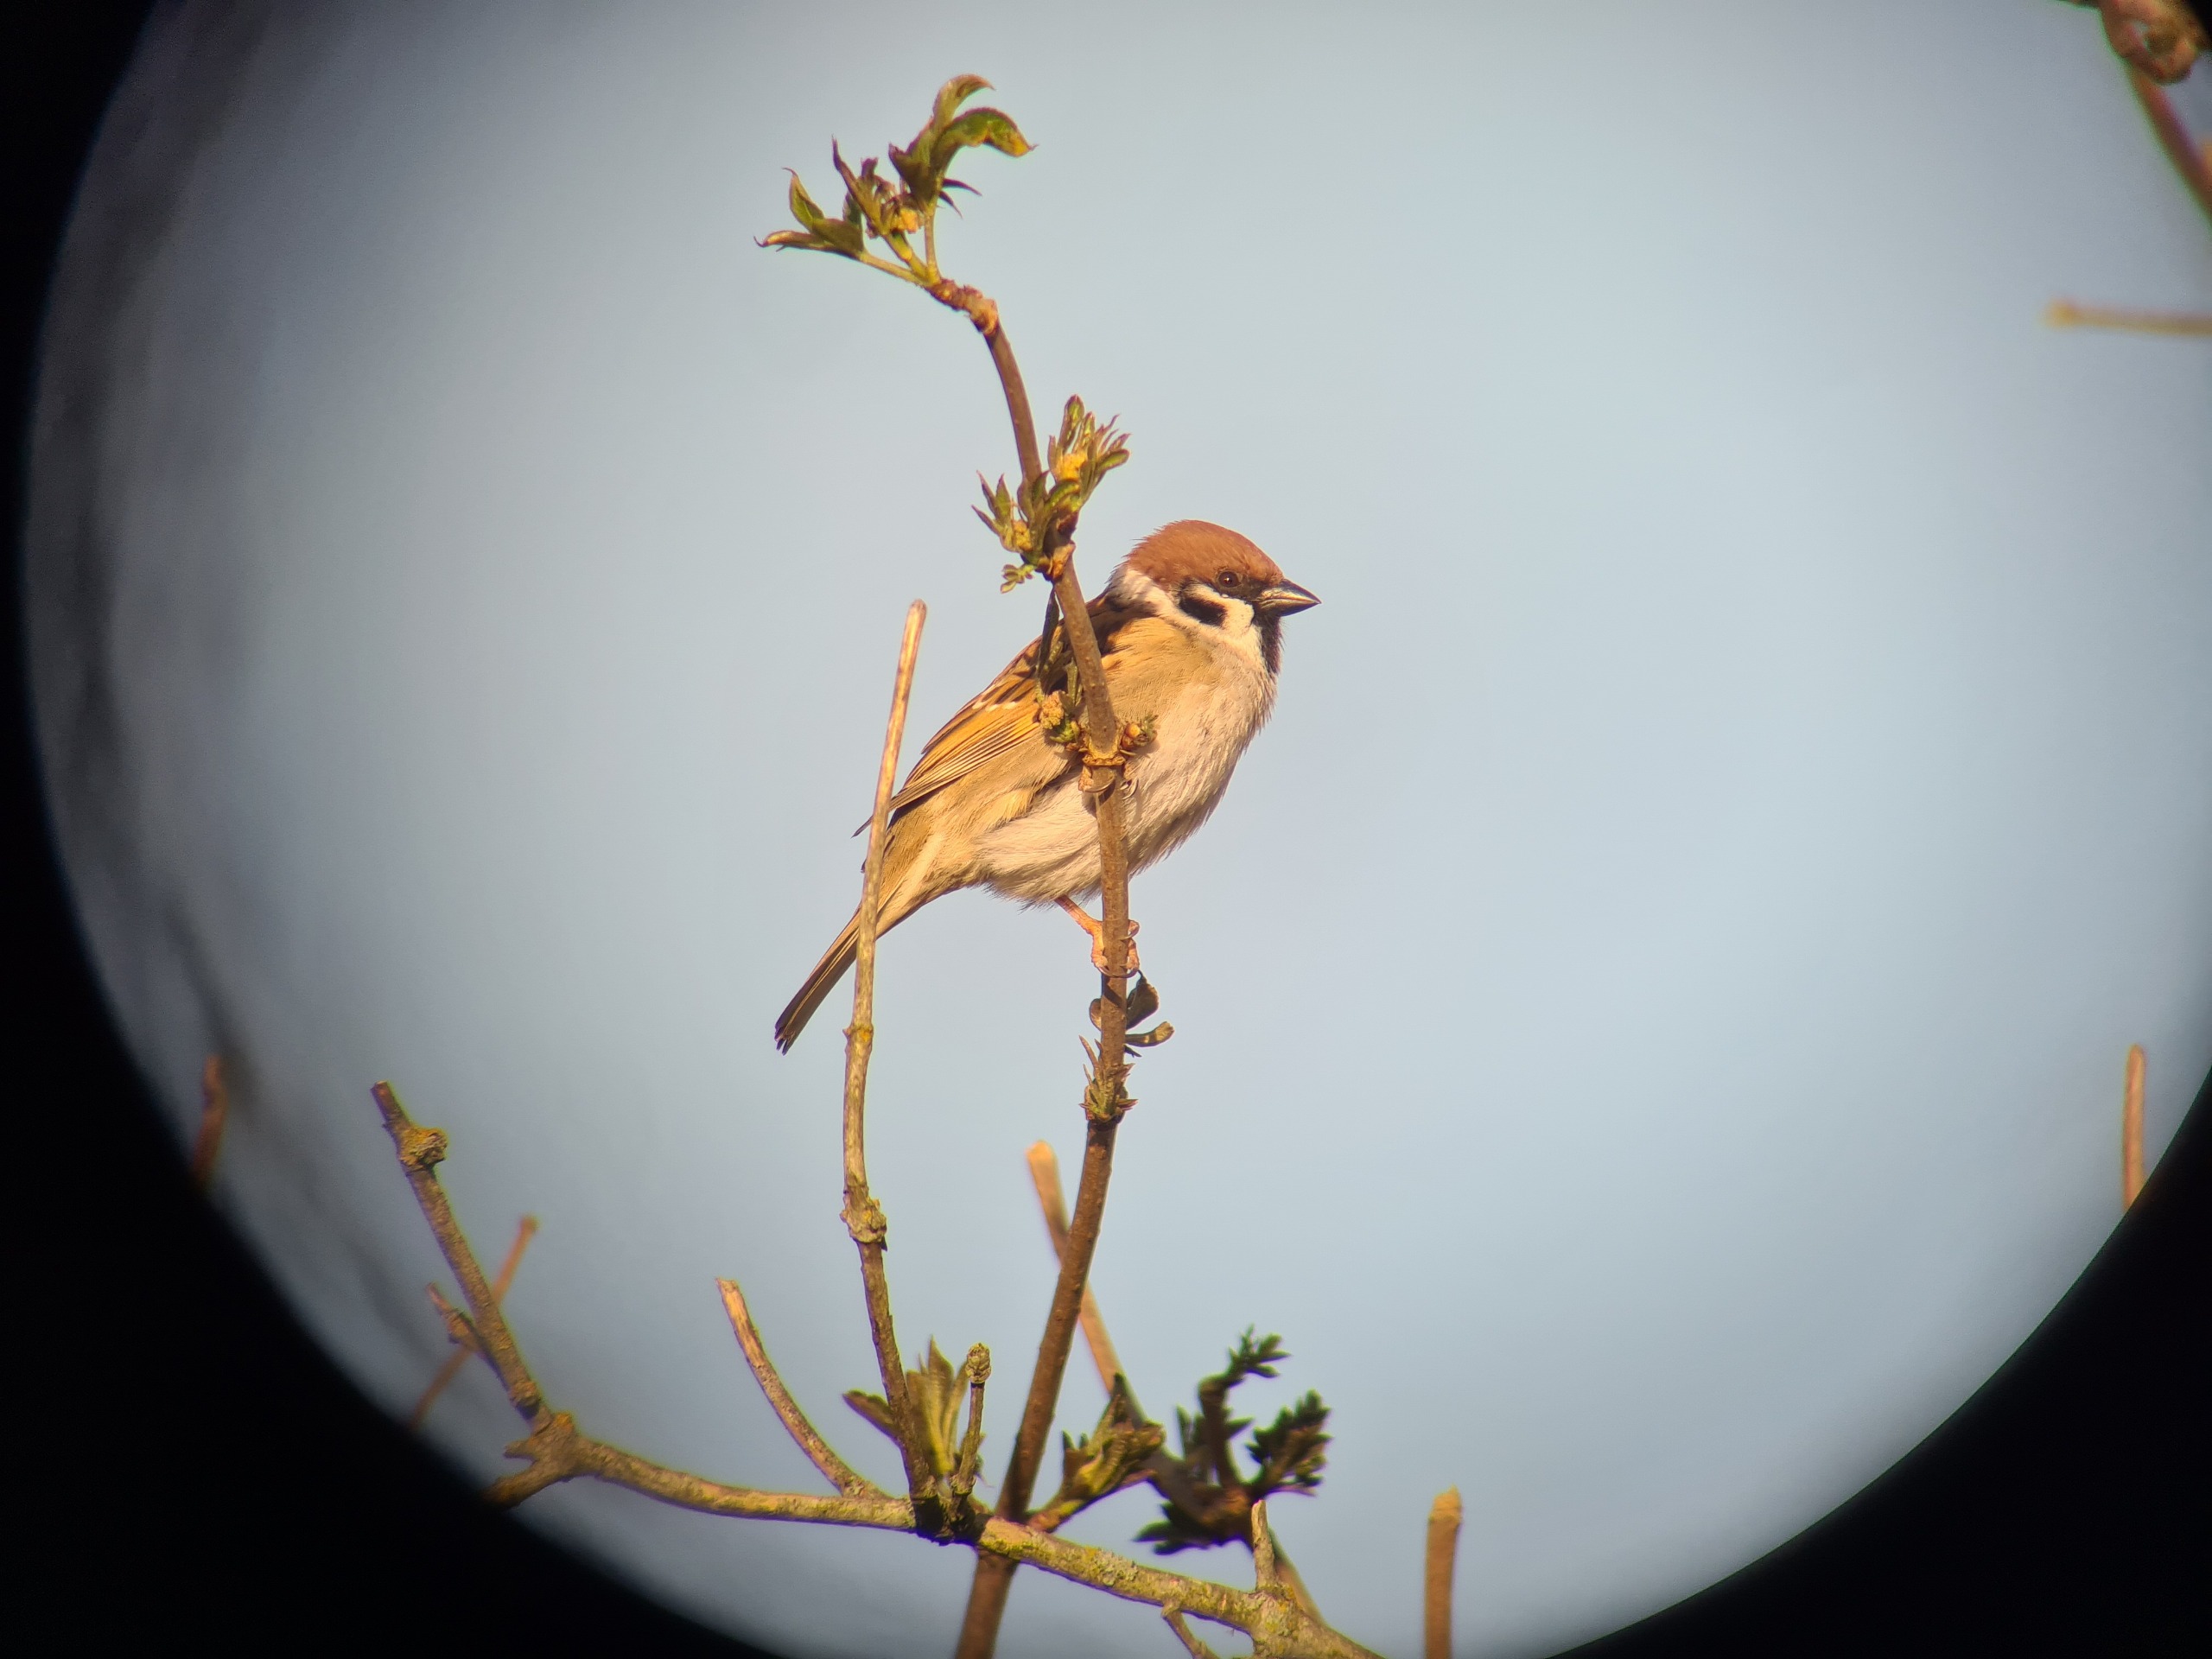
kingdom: Animalia
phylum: Chordata
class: Aves
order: Passeriformes
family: Passeridae
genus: Passer
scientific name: Passer montanus
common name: Skovspurv
